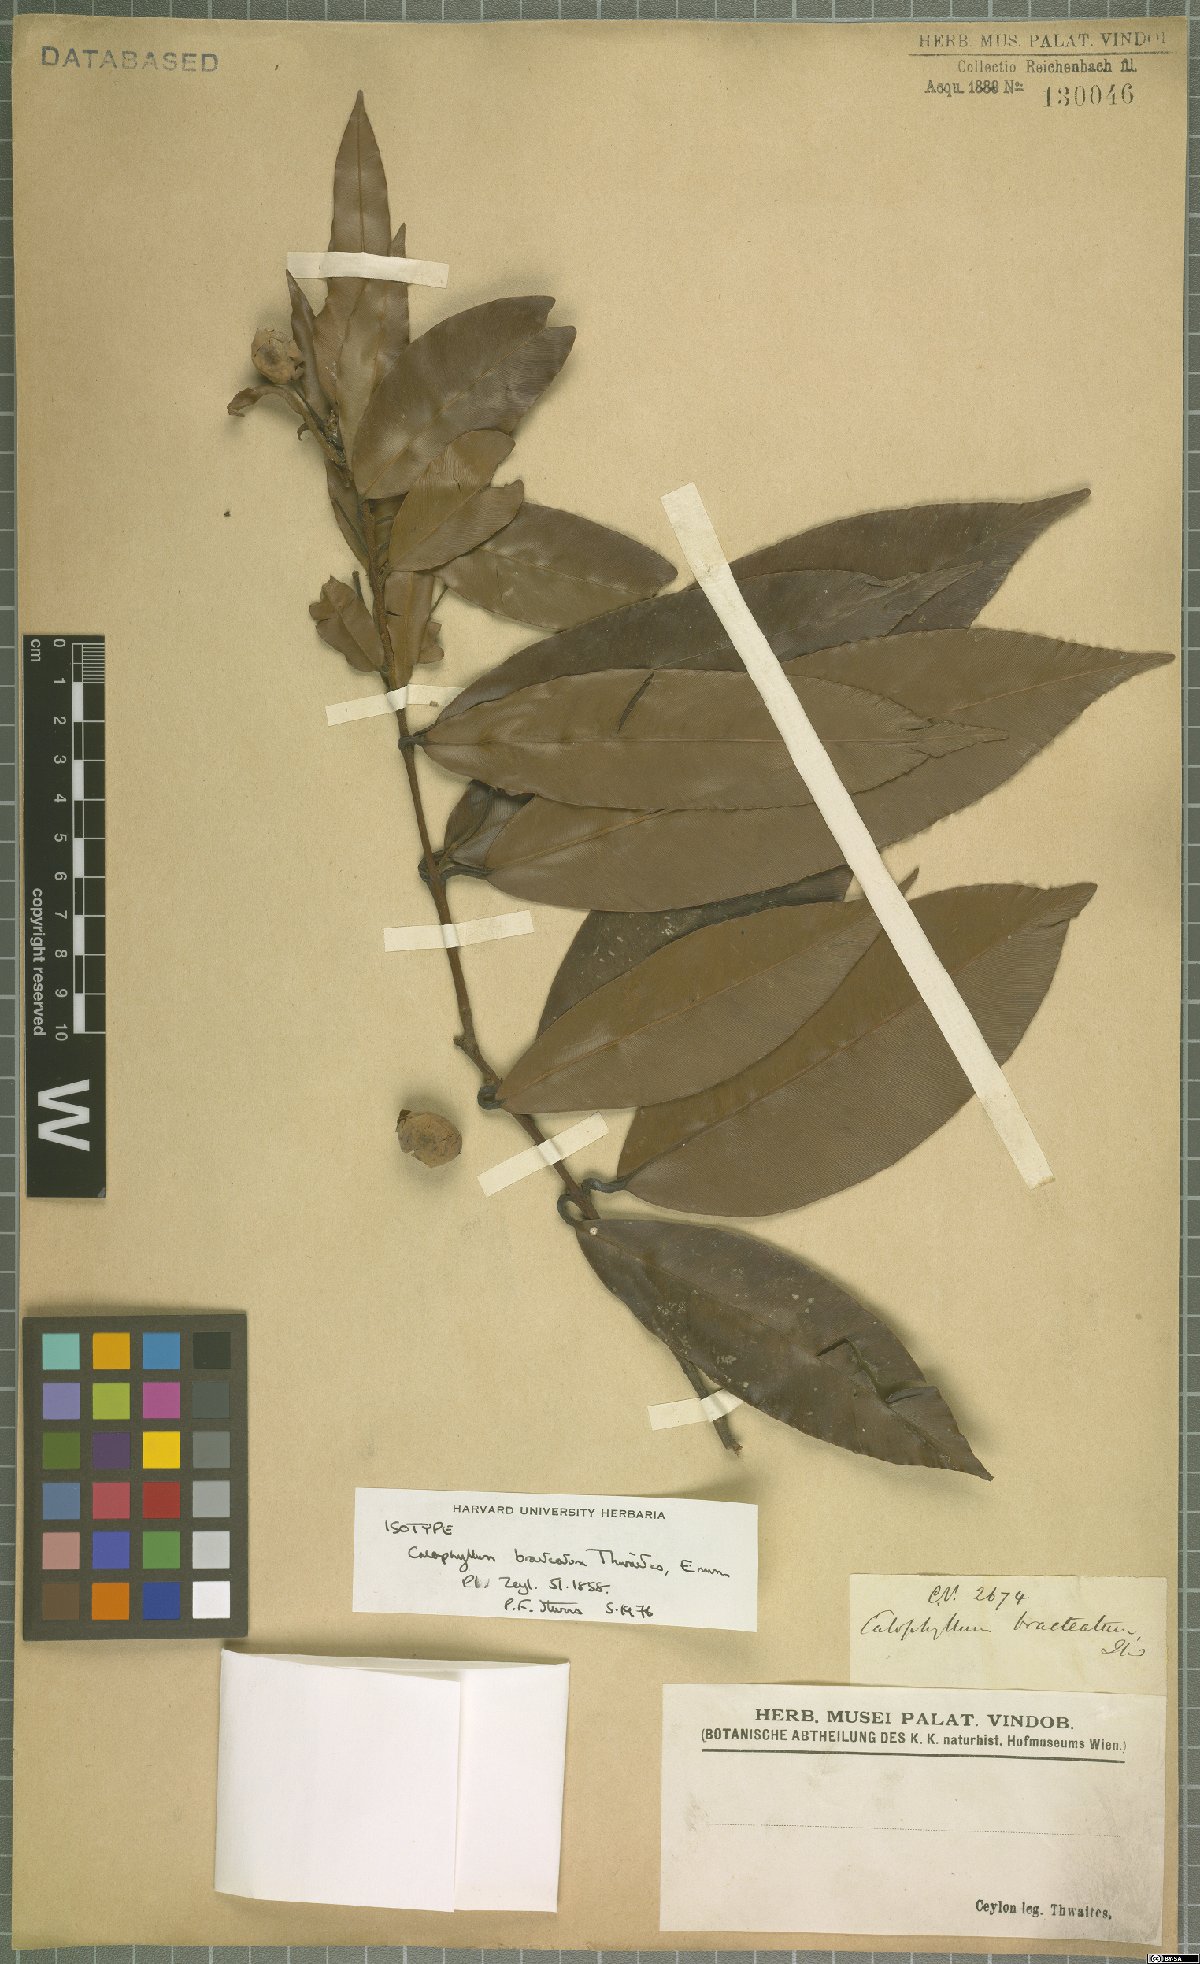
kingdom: Plantae
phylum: Tracheophyta
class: Magnoliopsida
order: Malpighiales
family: Calophyllaceae
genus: Calophyllum
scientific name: Calophyllum bracteatum
